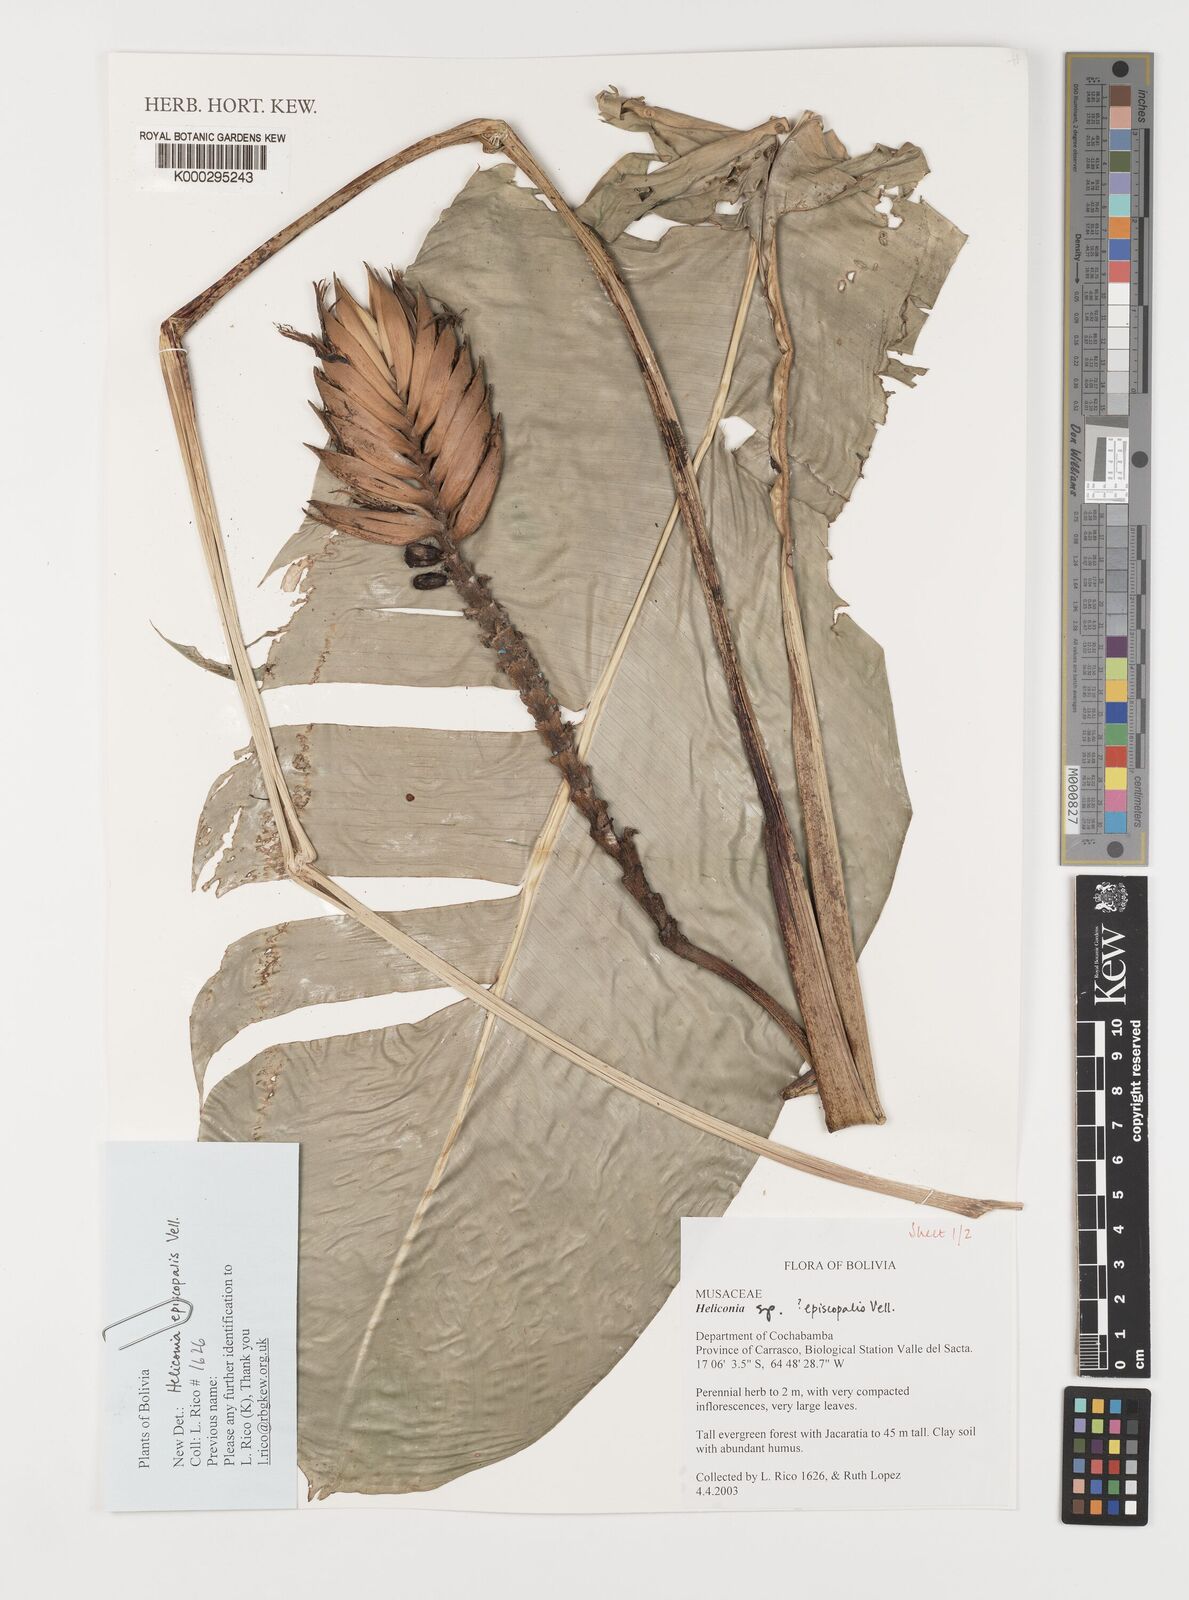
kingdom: Plantae
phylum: Tracheophyta
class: Liliopsida
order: Zingiberales
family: Heliconiaceae
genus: Heliconia
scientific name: Heliconia episcopalis
